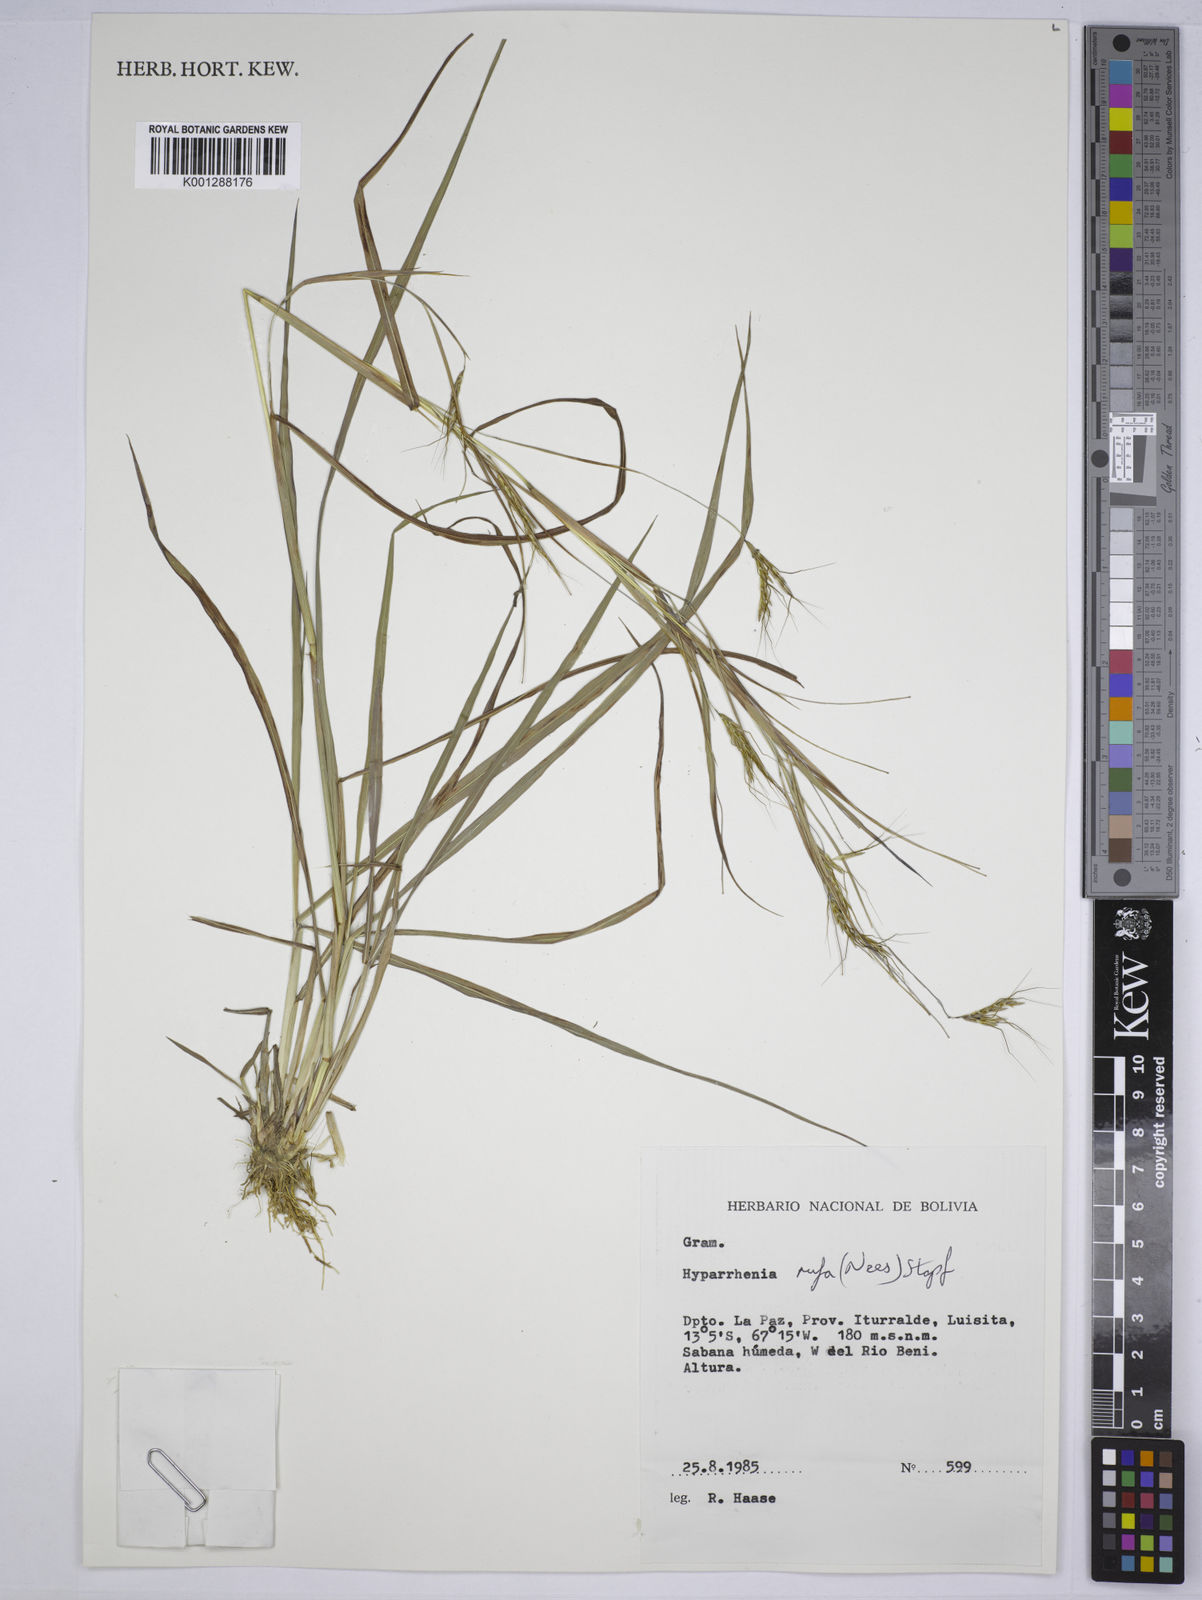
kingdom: Plantae
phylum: Tracheophyta
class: Liliopsida
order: Poales
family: Poaceae
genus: Hyparrhenia
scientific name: Hyparrhenia rufa
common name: Jaraguagrass
